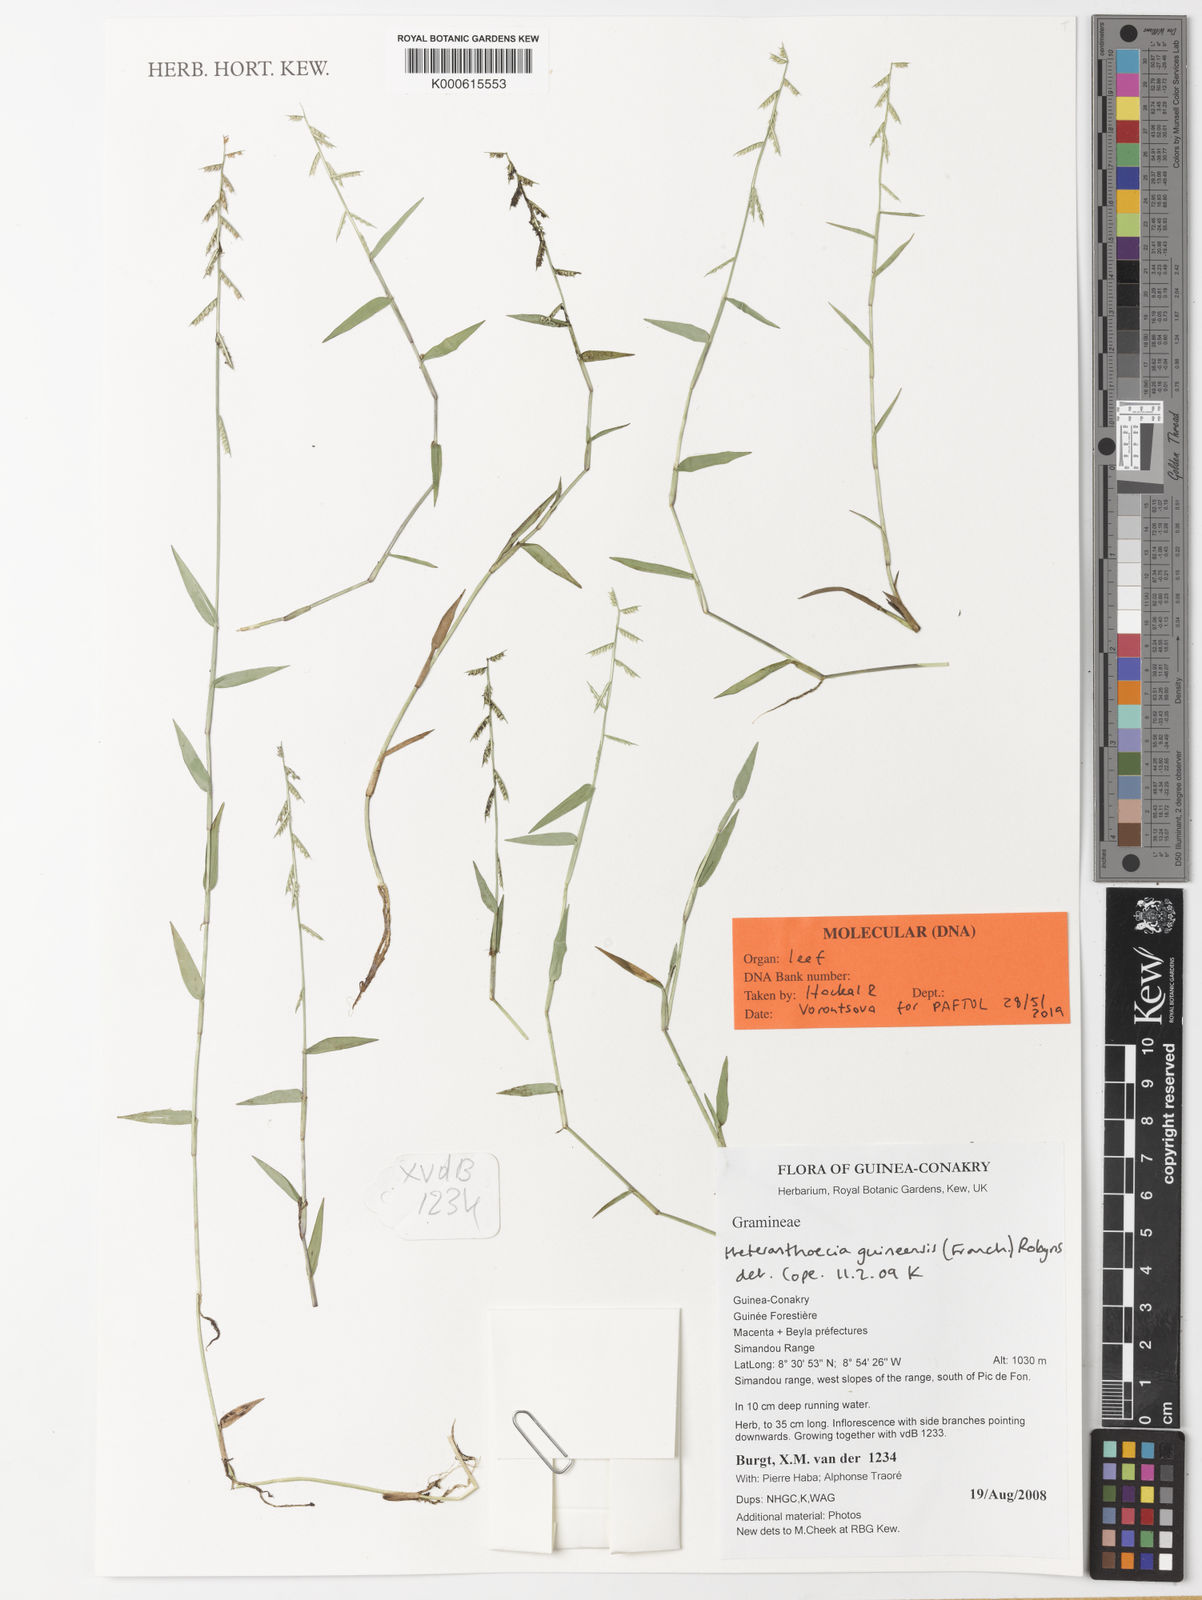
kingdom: Plantae
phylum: Tracheophyta
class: Liliopsida
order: Poales
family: Poaceae
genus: Heteranthoecia
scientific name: Heteranthoecia guineensis
